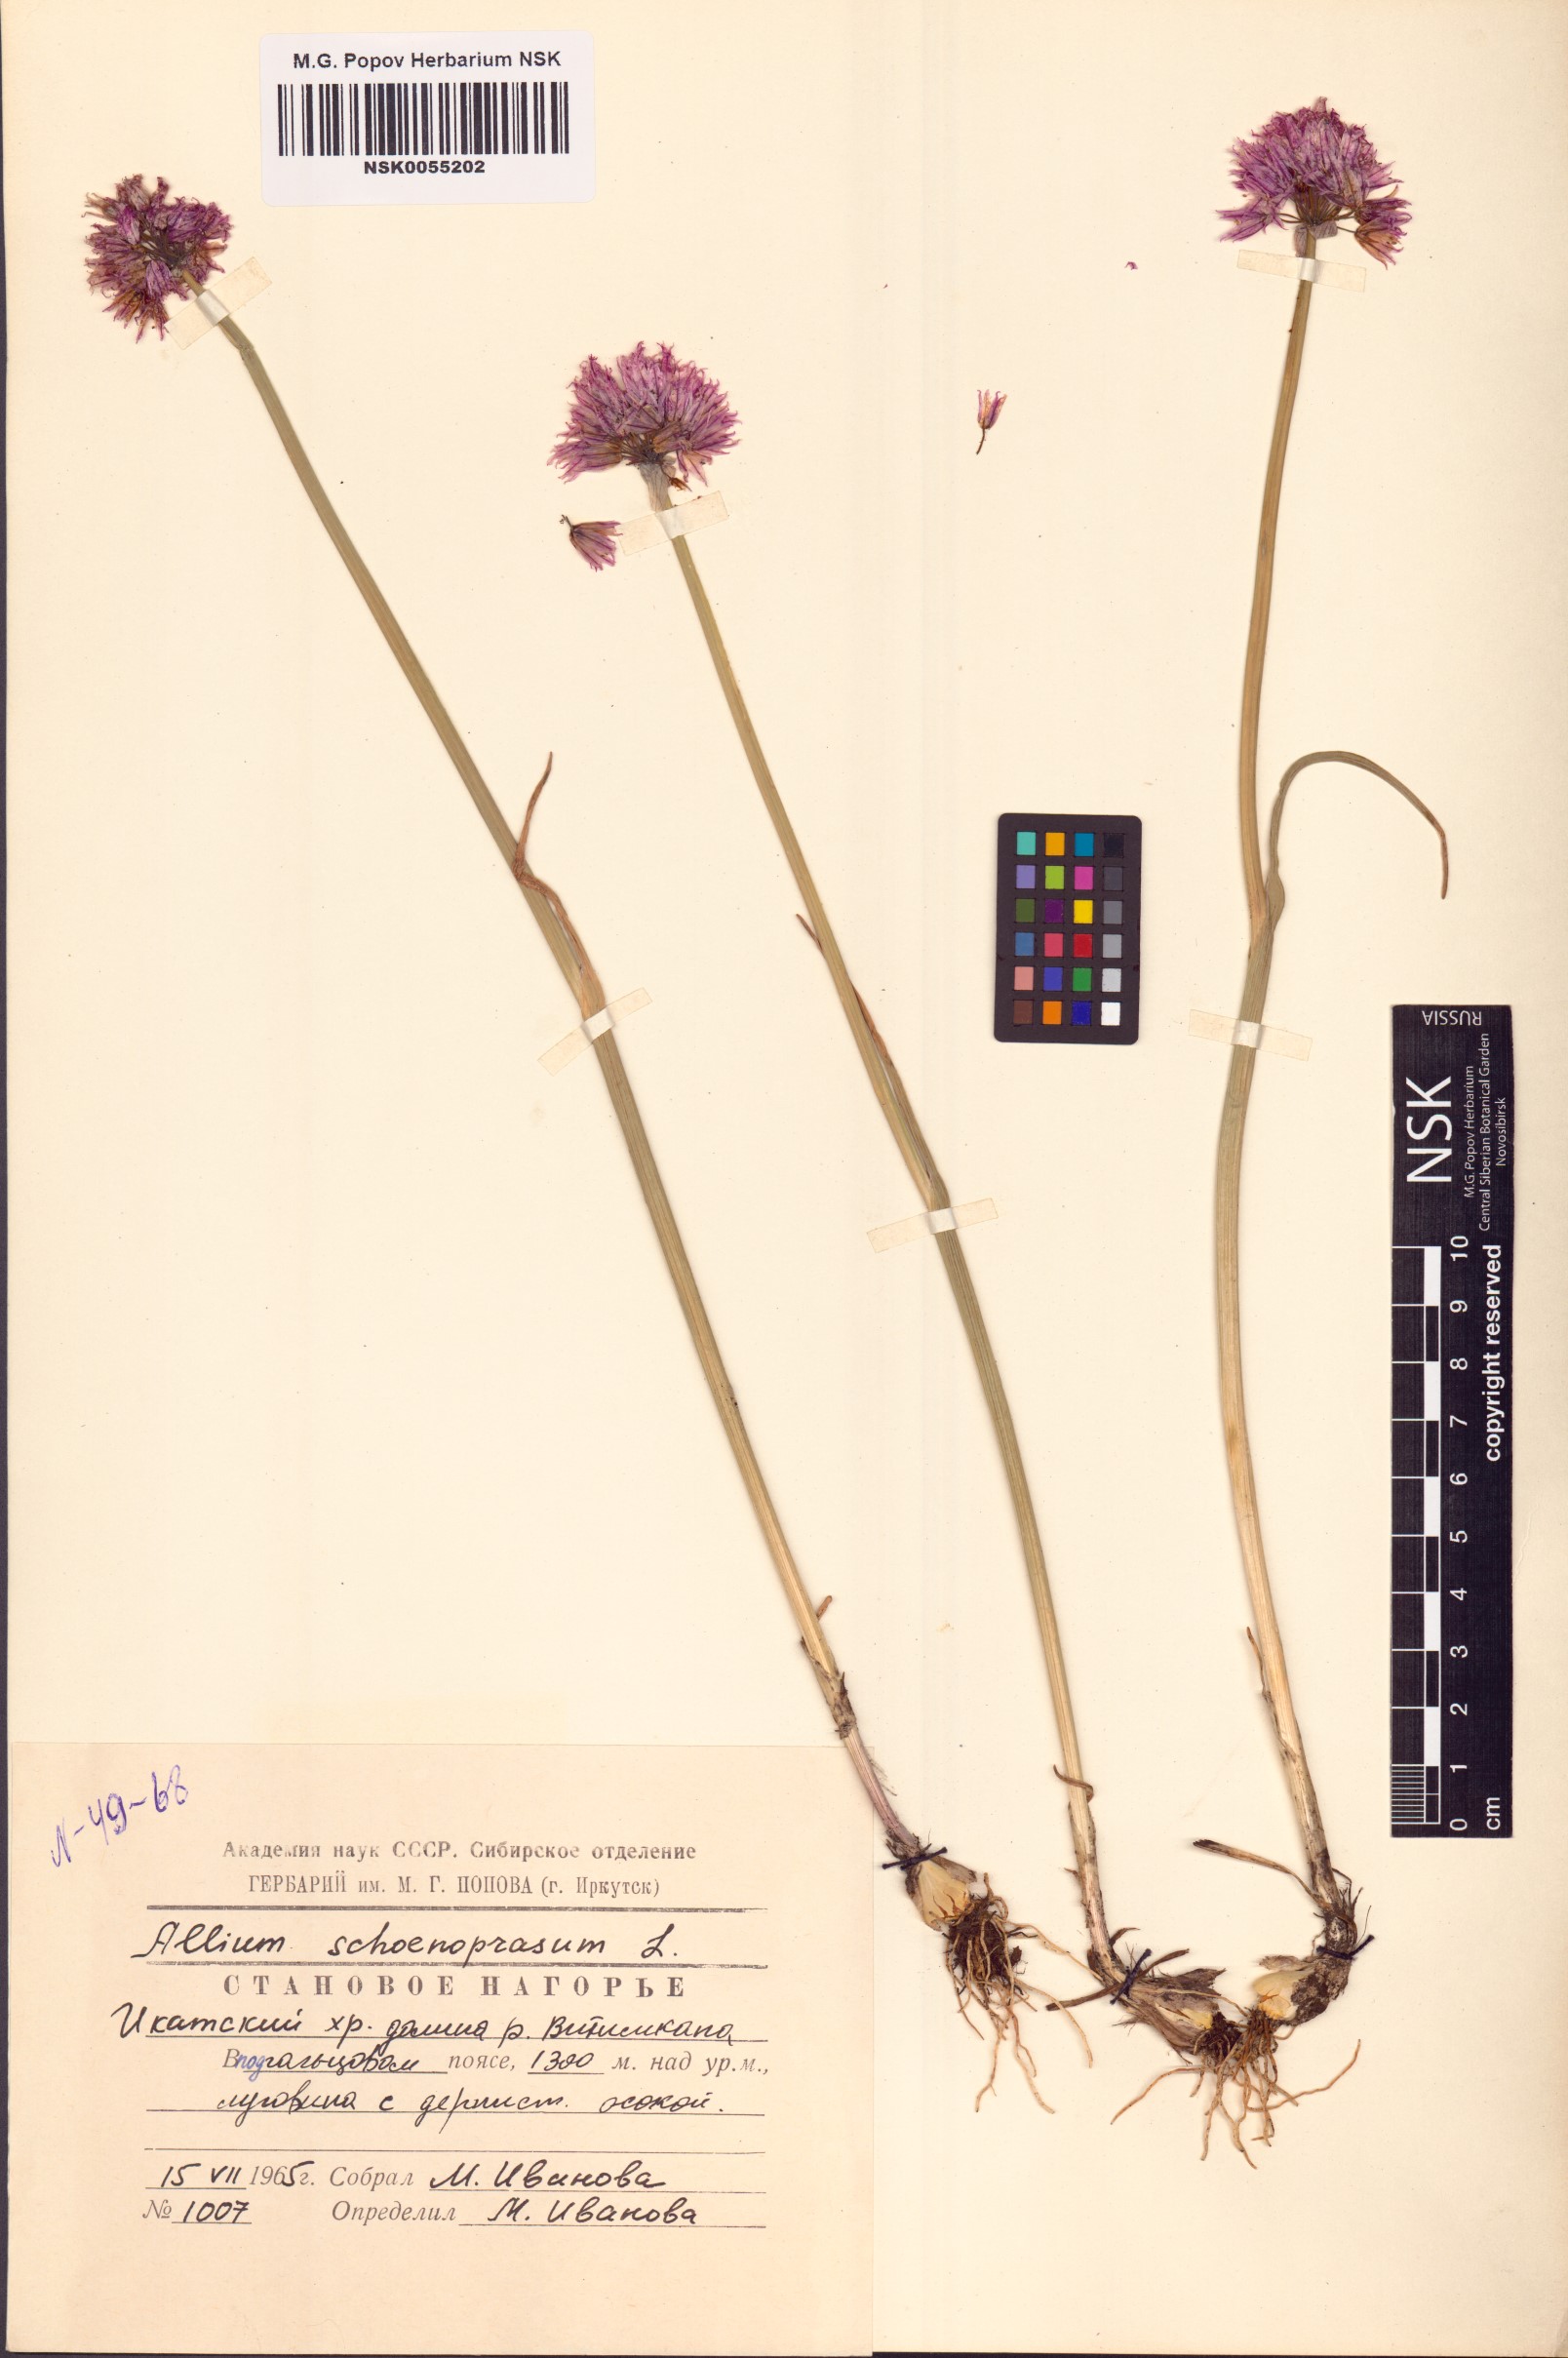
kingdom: Plantae
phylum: Tracheophyta
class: Liliopsida
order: Asparagales
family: Amaryllidaceae
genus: Allium
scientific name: Allium schoenoprasum
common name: Chives
